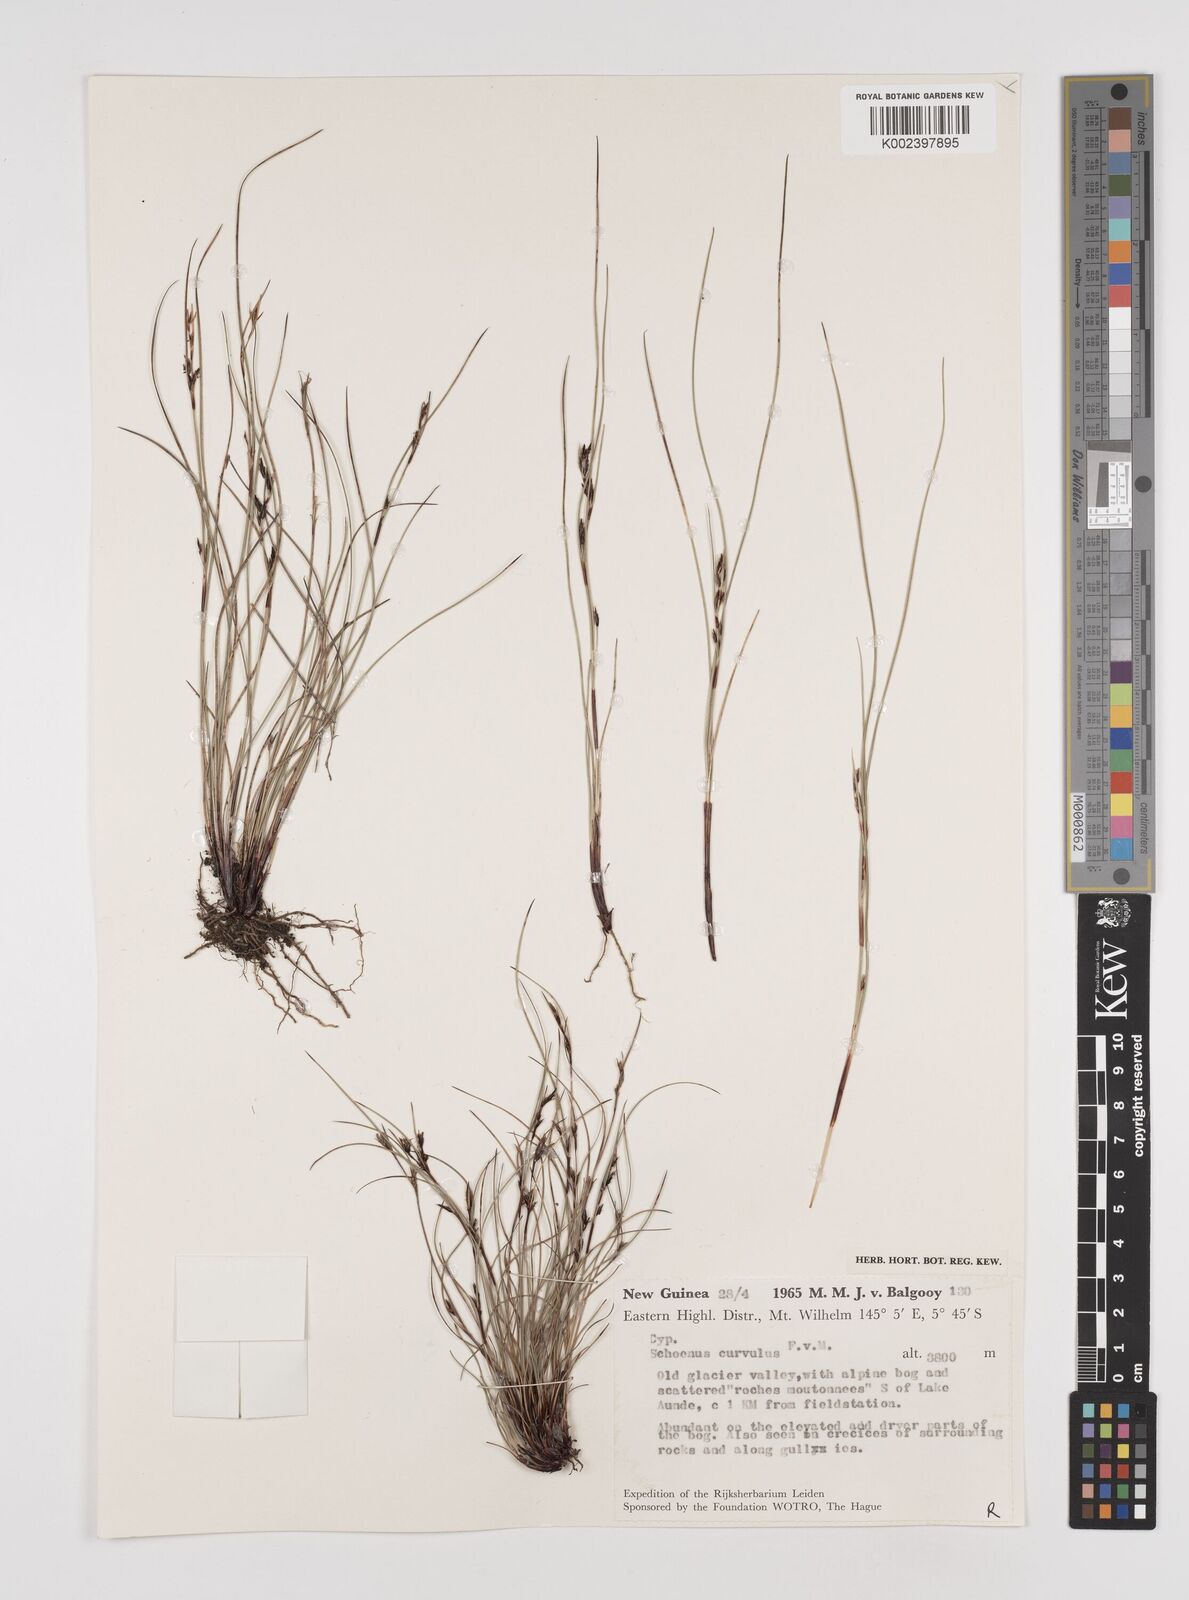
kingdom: Plantae
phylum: Tracheophyta
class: Liliopsida
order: Poales
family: Cyperaceae
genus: Schoenus
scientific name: Schoenus curvulus
